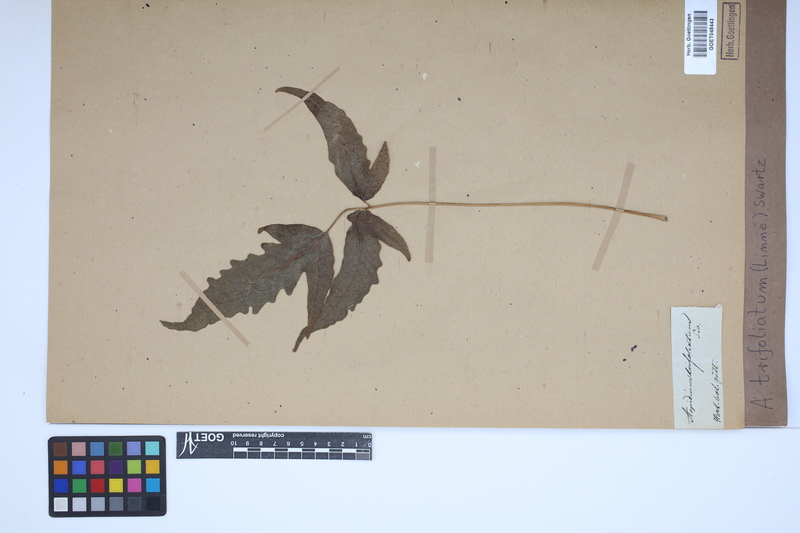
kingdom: Plantae
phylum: Tracheophyta
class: Polypodiopsida
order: Polypodiales
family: Tectariaceae
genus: Tectaria
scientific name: Tectaria trifoliata
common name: Threeleaf halberd fern
